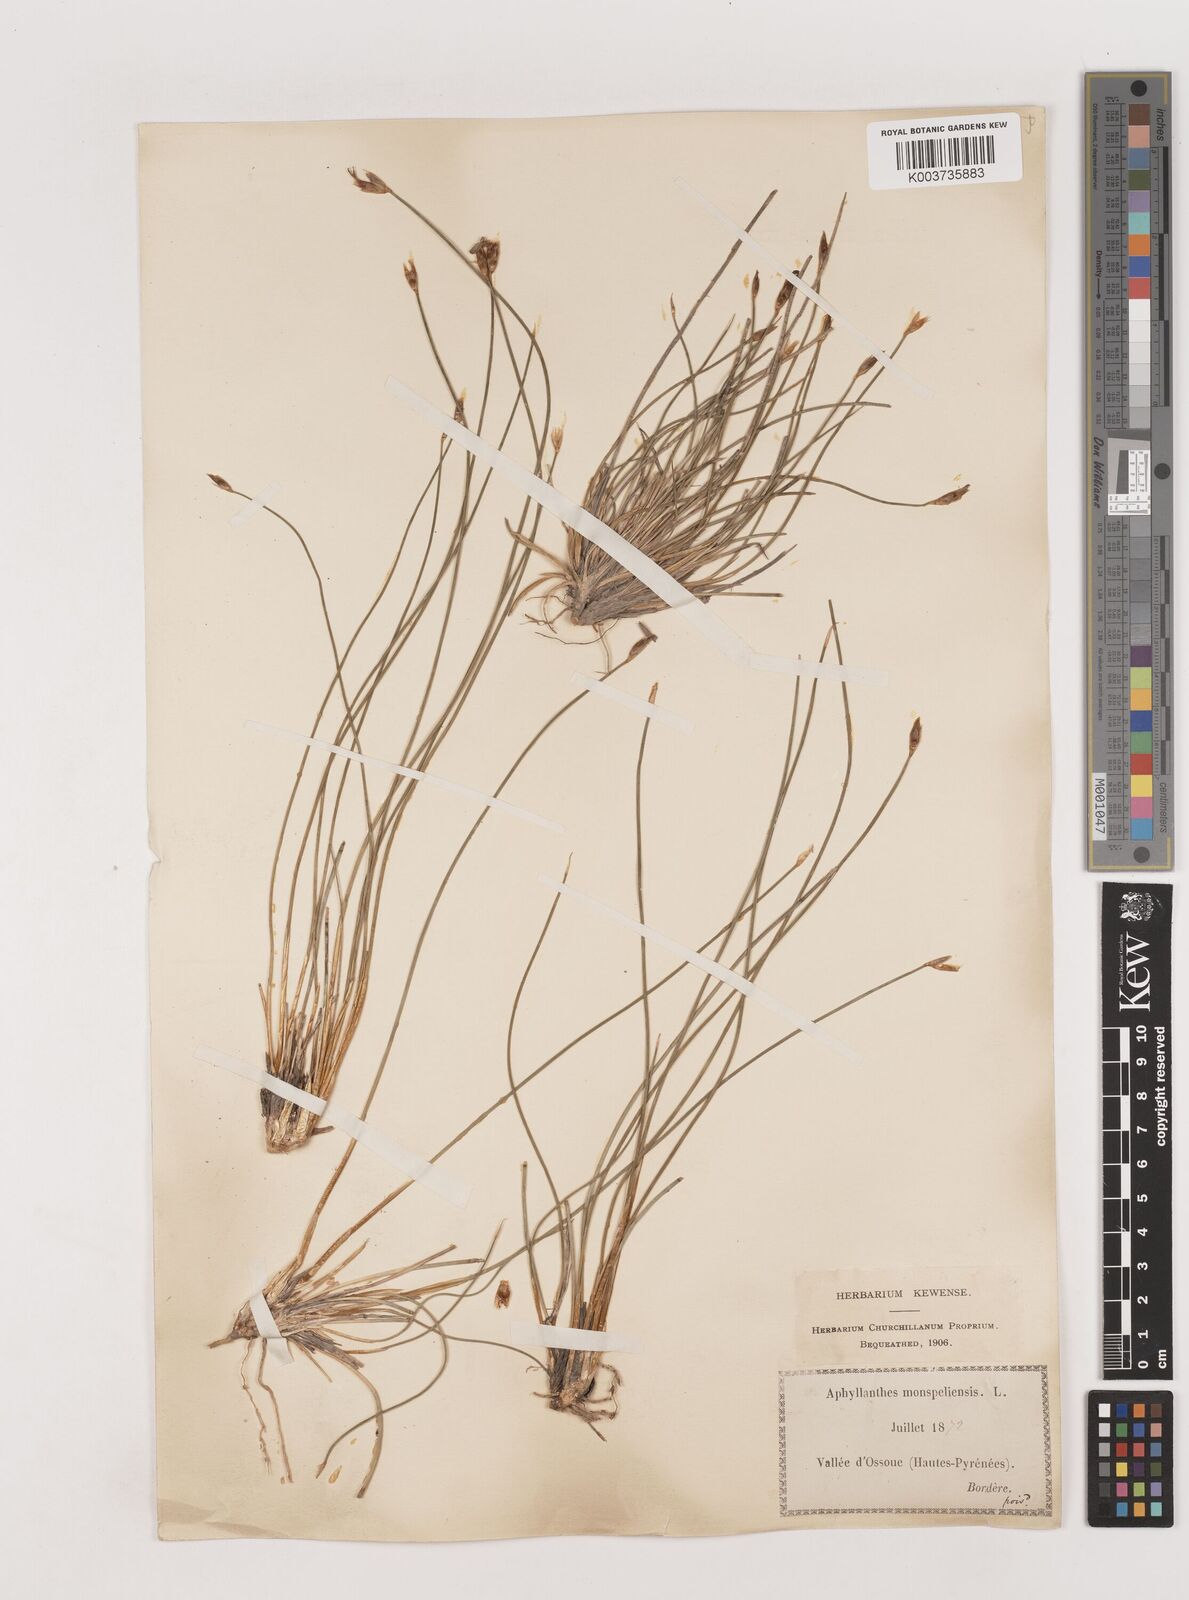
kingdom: Plantae
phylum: Tracheophyta
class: Liliopsida
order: Asparagales
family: Asparagaceae
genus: Aphyllanthes
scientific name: Aphyllanthes monspeliensis
